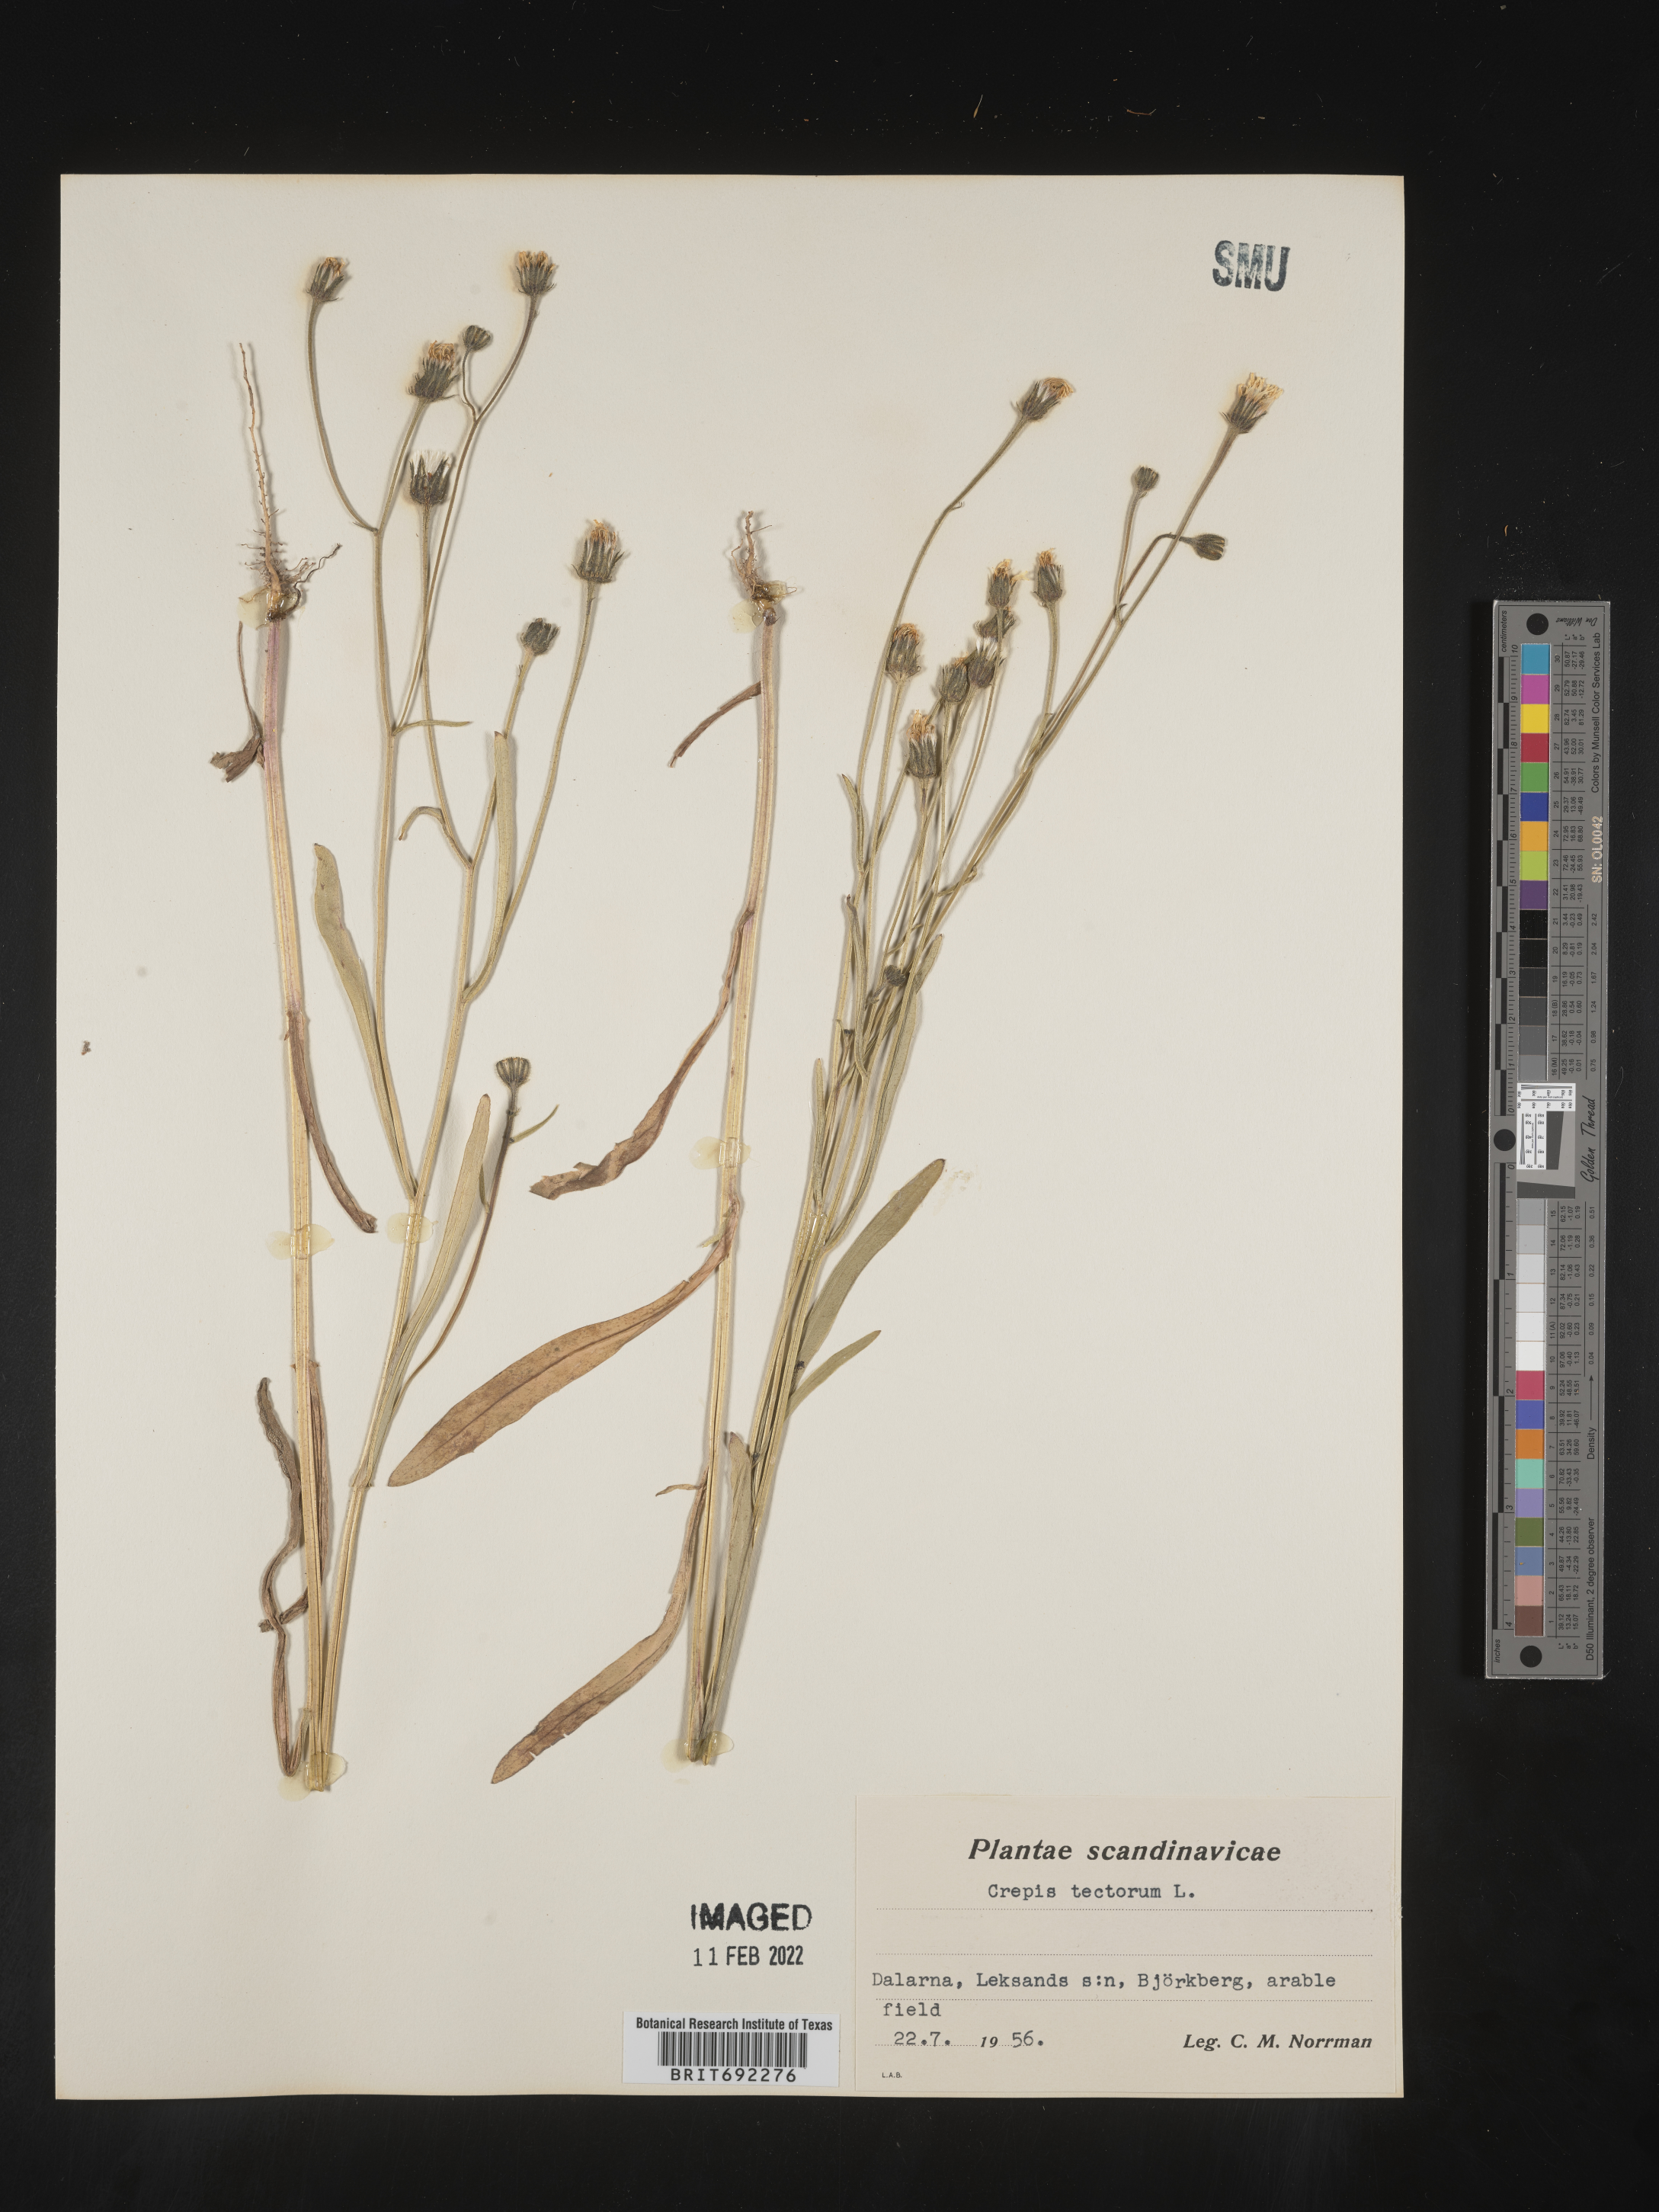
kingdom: Plantae
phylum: Tracheophyta
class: Magnoliopsida
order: Asterales
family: Asteraceae
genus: Crepis
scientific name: Crepis
